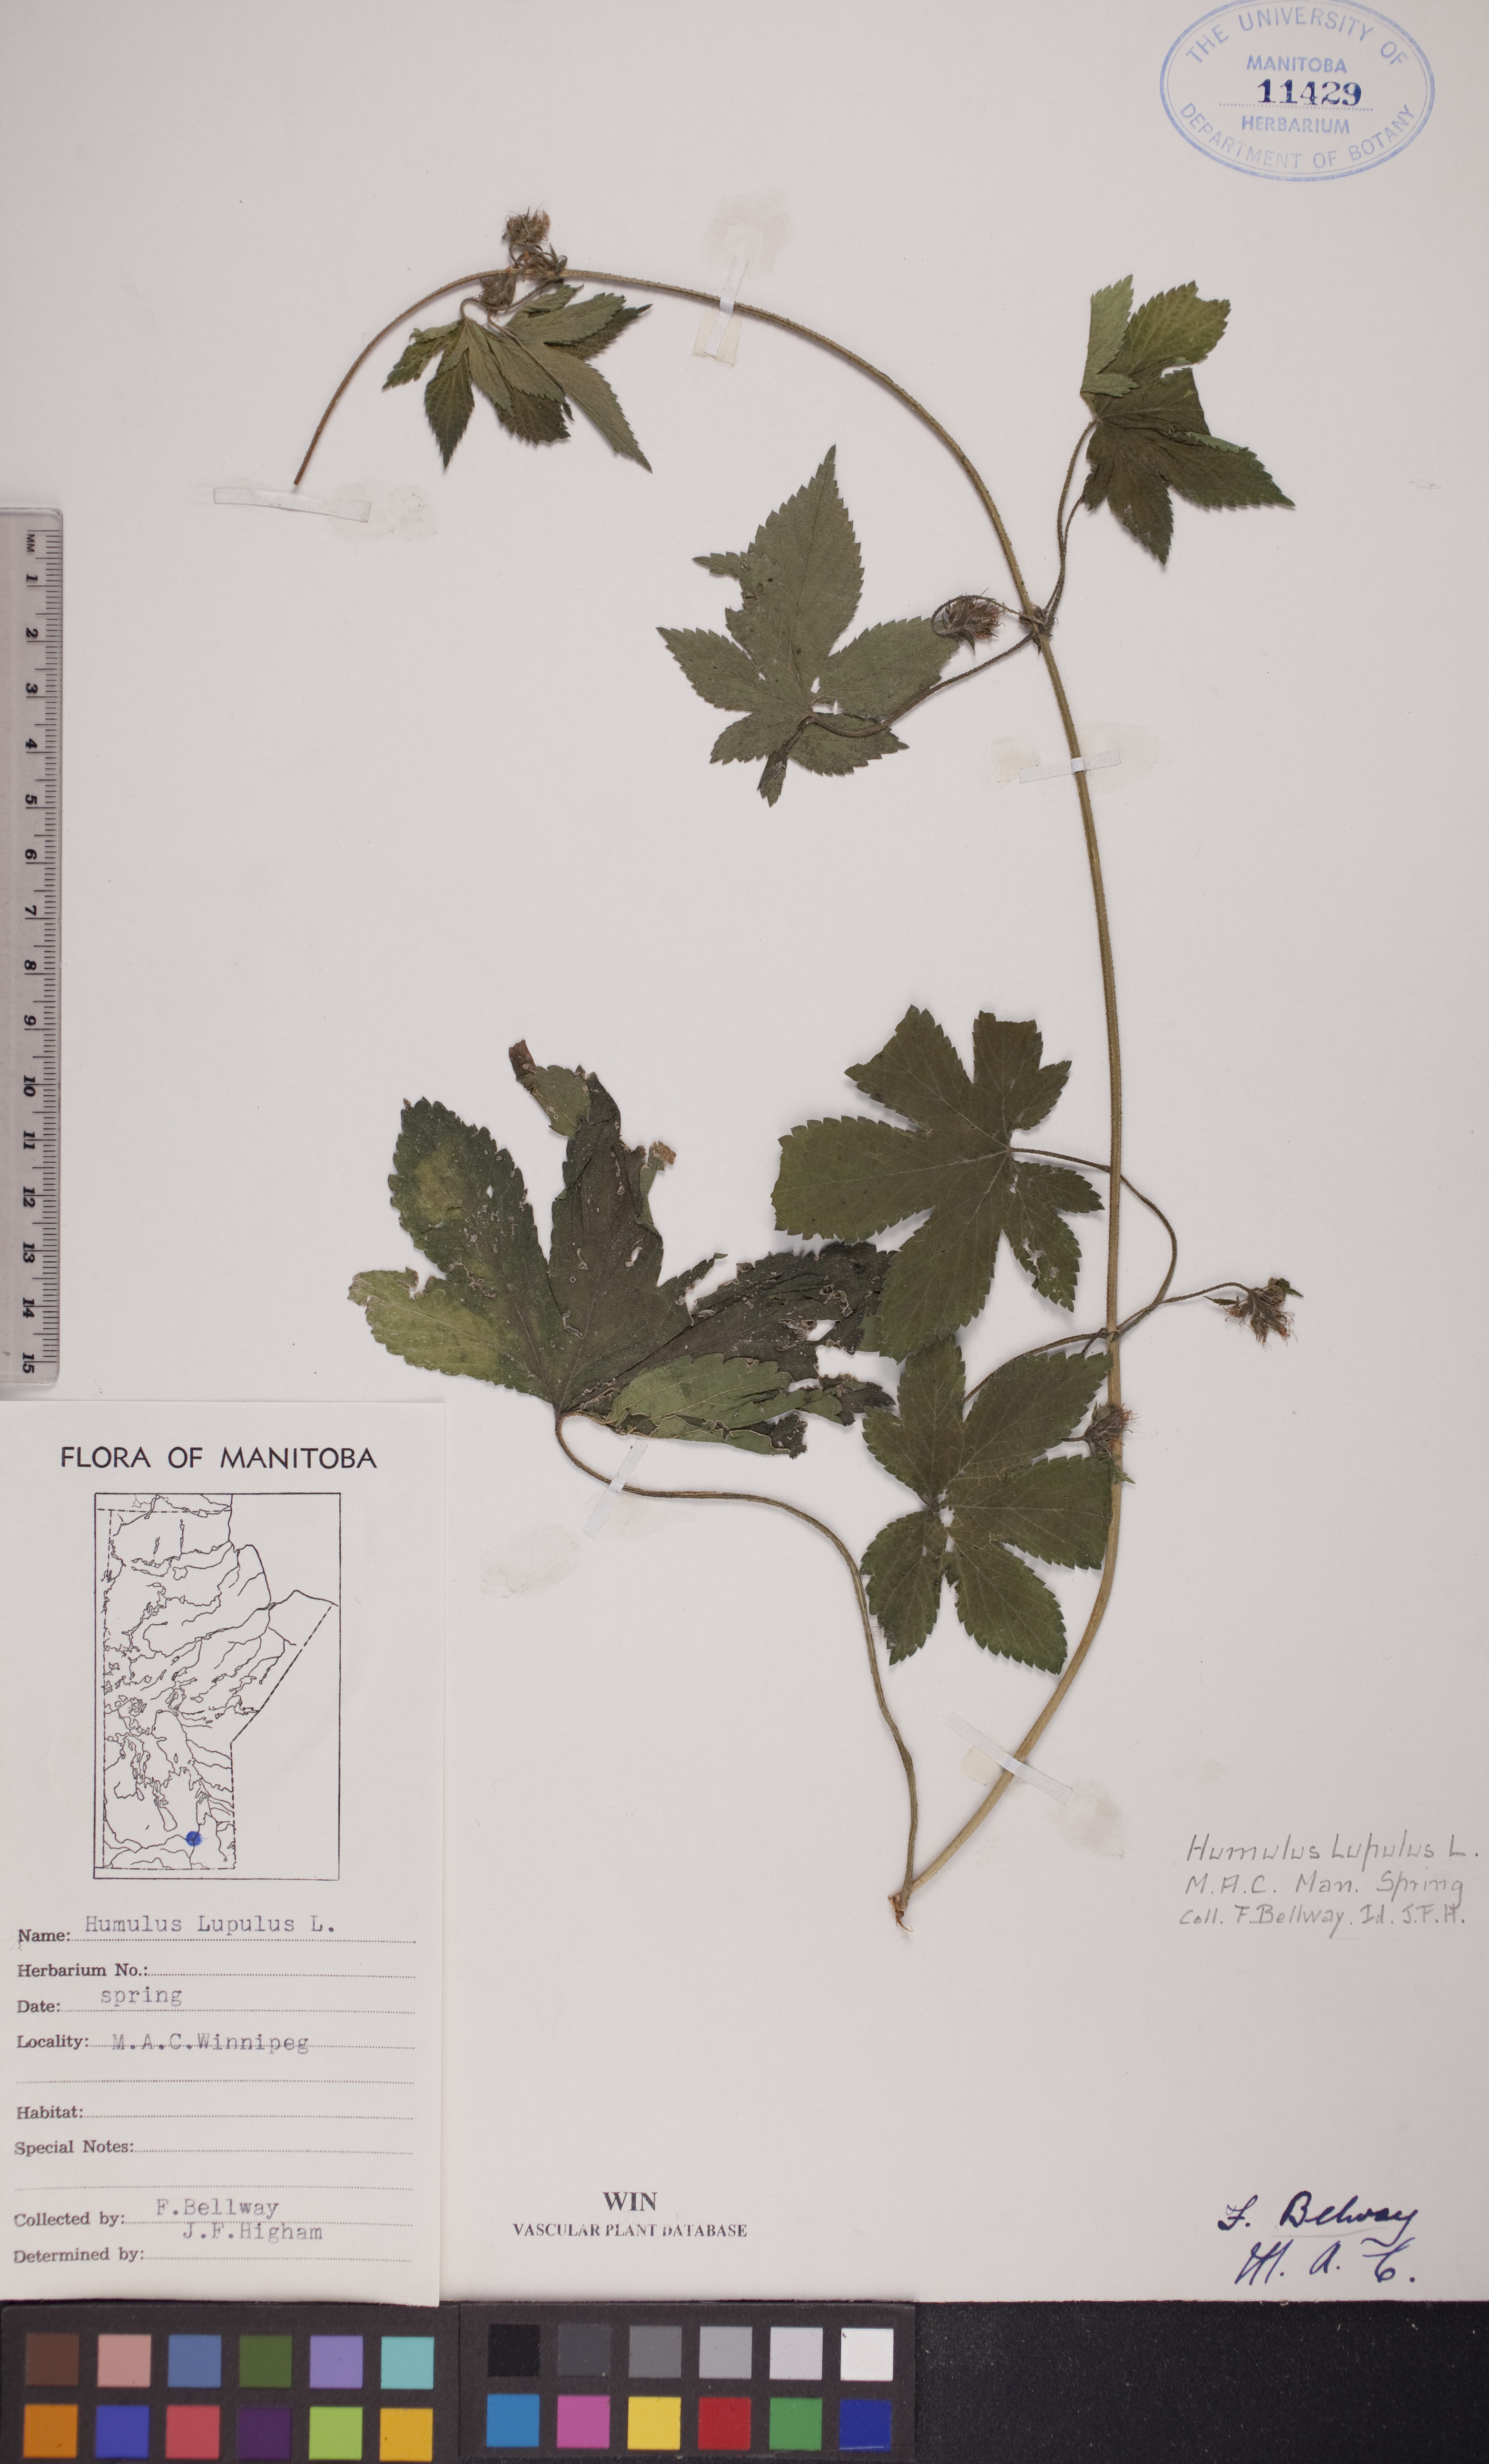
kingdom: Plantae
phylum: Tracheophyta
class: Magnoliopsida
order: Rosales
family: Cannabaceae
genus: Humulus
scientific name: Humulus lupulus
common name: Hop
